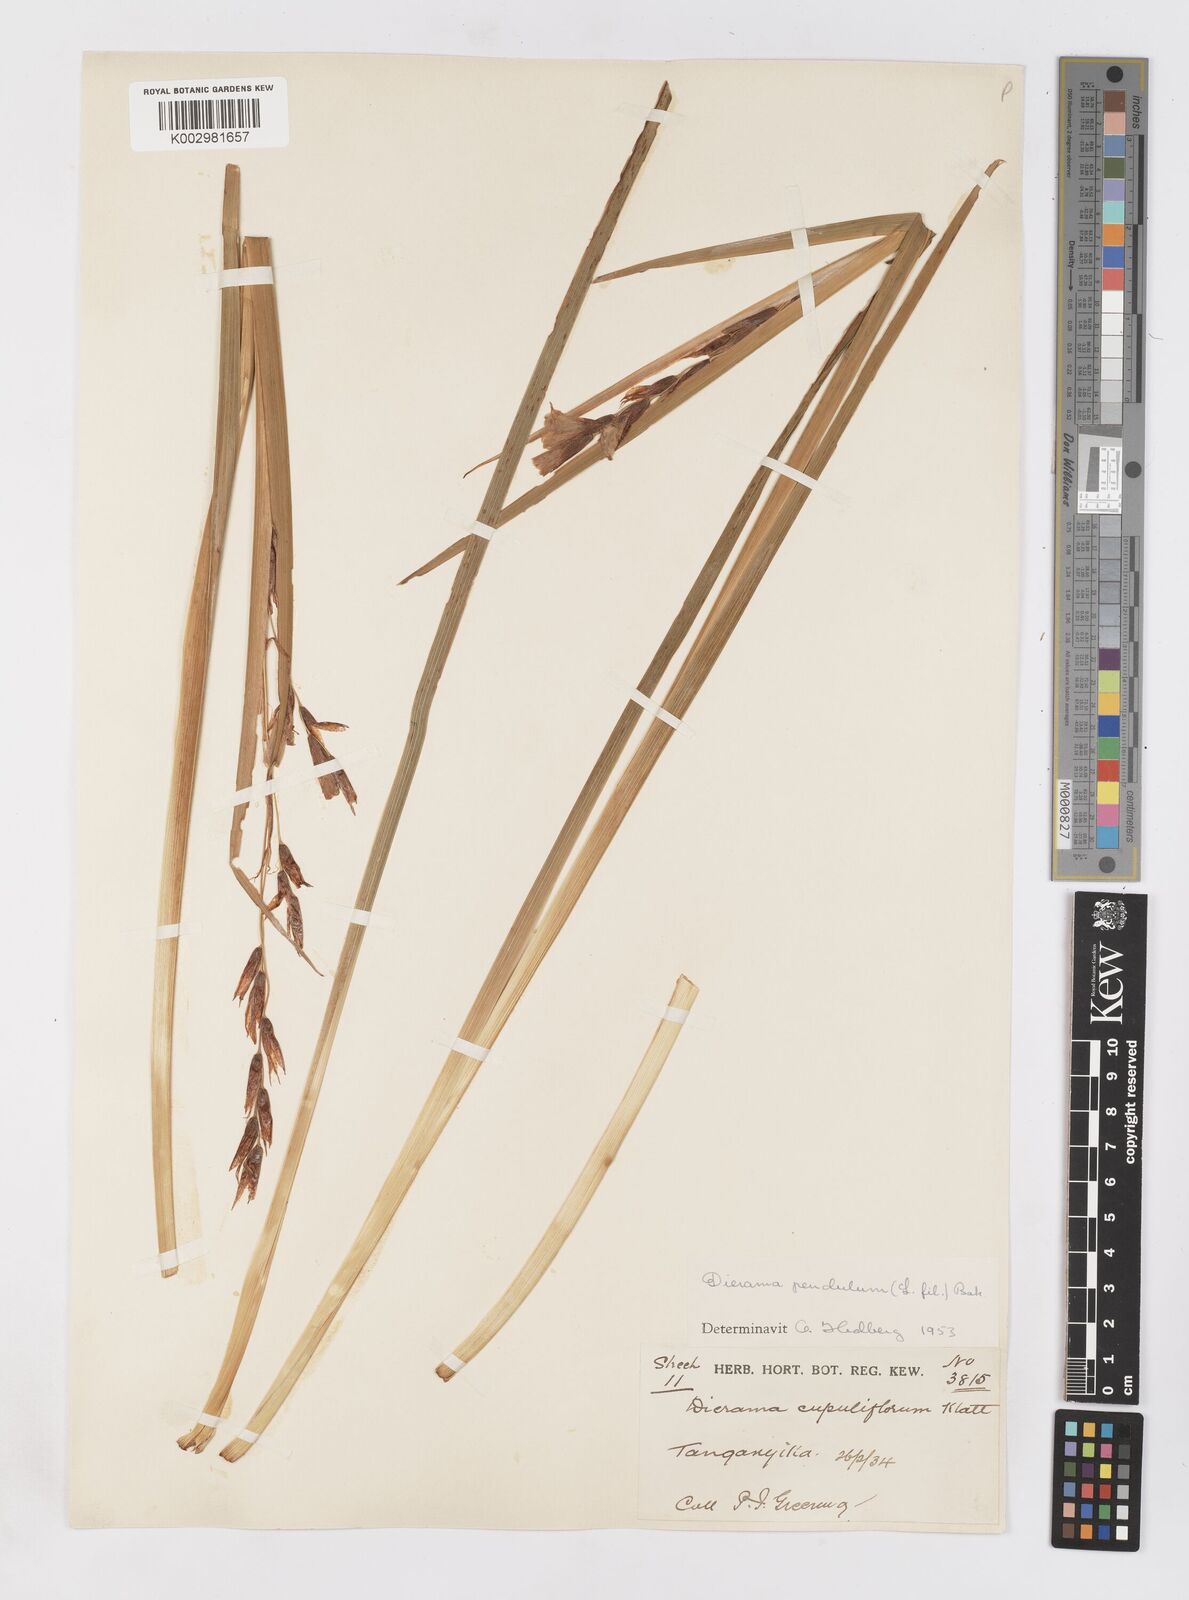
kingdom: Plantae
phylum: Tracheophyta
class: Liliopsida
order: Asparagales
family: Iridaceae
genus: Dierama
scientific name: Dierama cupuliflorum
